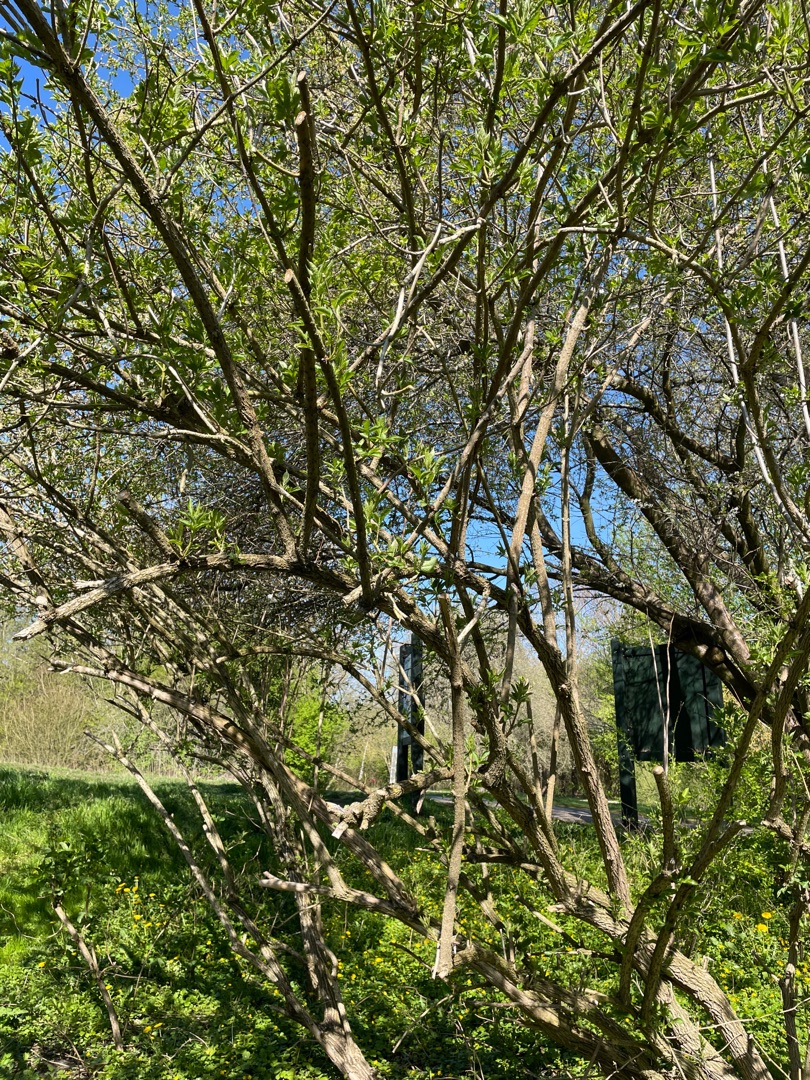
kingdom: Plantae
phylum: Tracheophyta
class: Magnoliopsida
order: Dipsacales
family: Viburnaceae
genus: Sambucus
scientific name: Sambucus nigra
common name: Almindelig hyld
